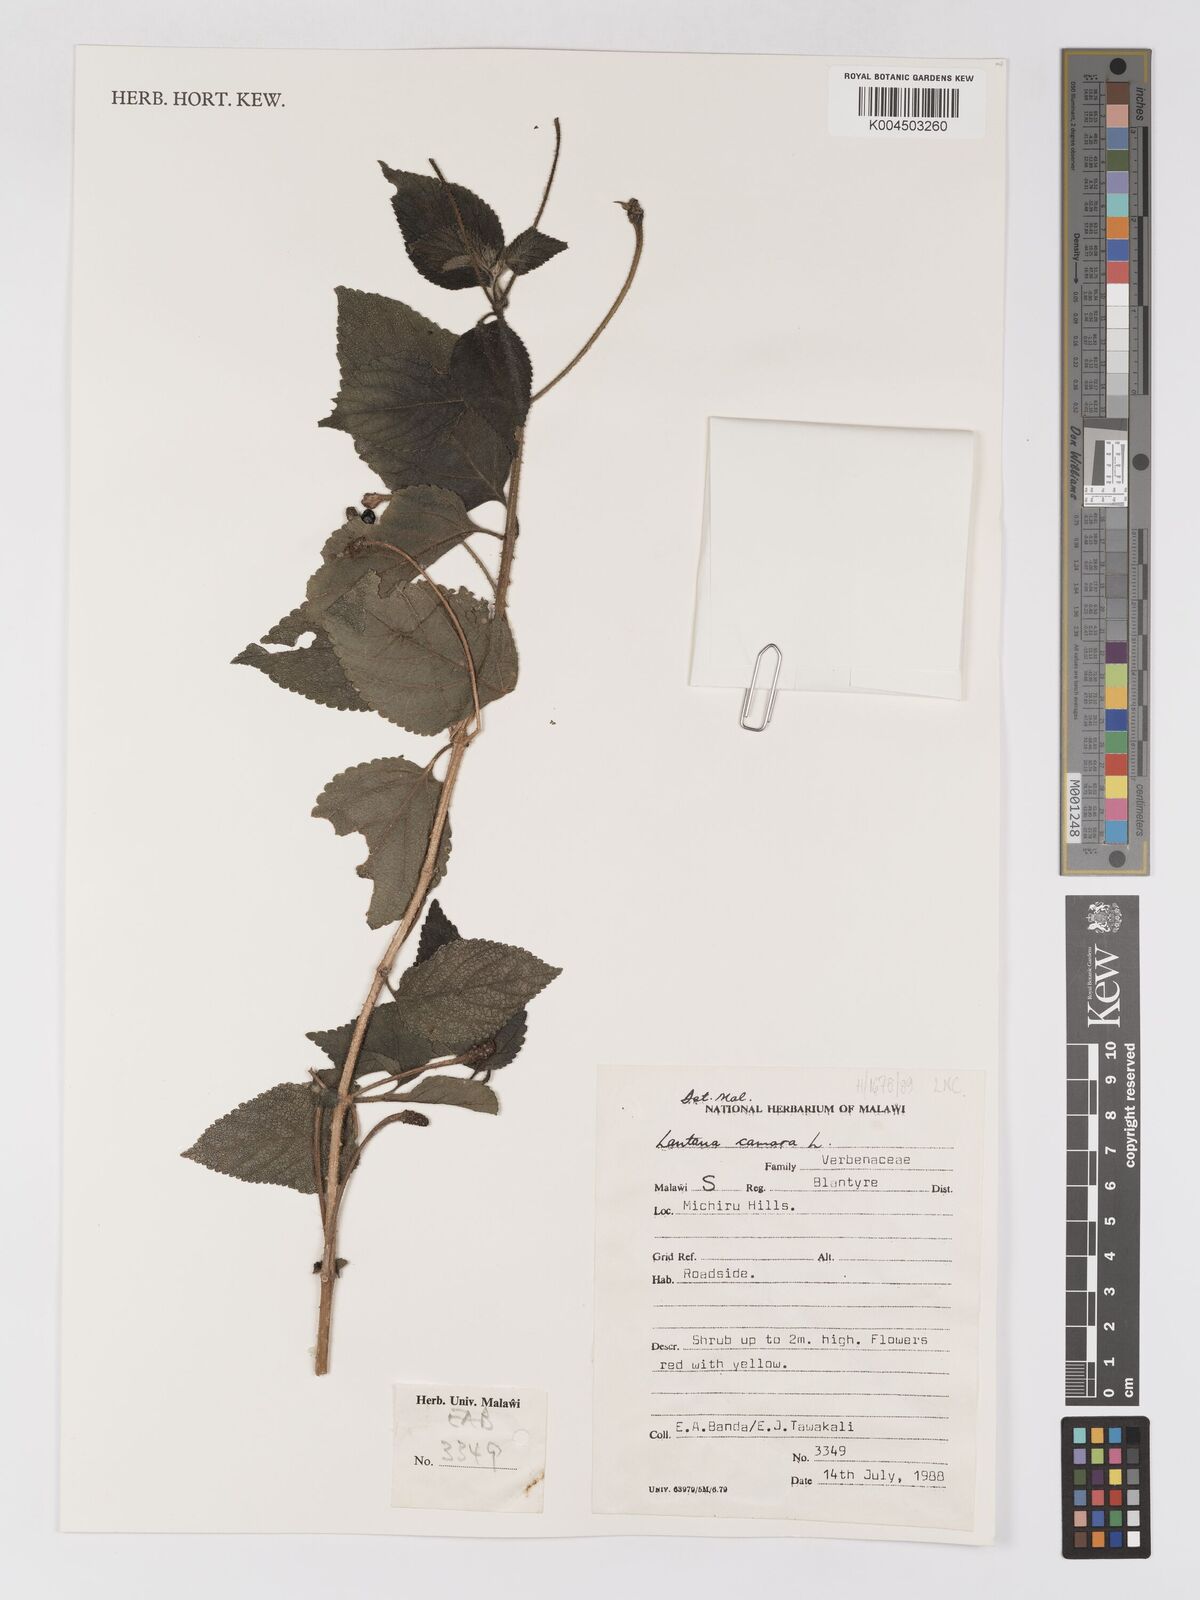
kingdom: Plantae
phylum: Tracheophyta
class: Magnoliopsida
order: Lamiales
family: Verbenaceae
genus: Lantana
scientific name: Lantana camara
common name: Lantana
